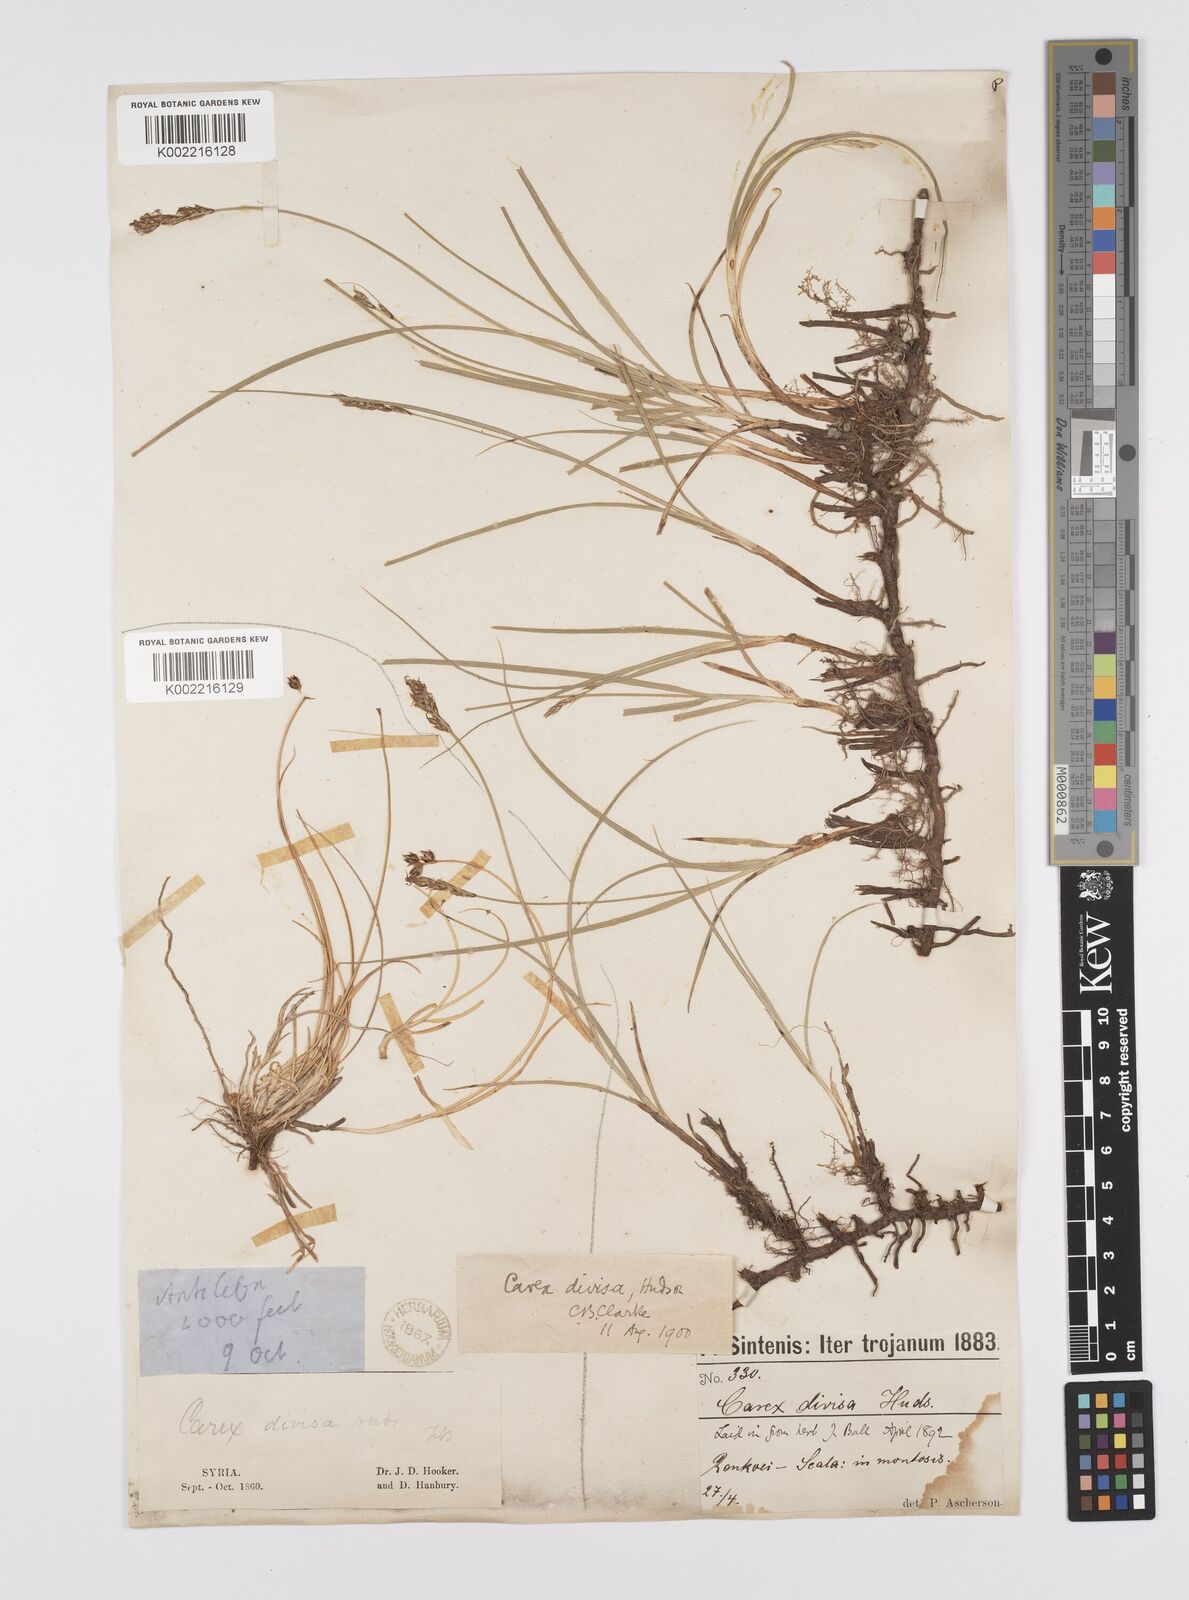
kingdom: Plantae
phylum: Tracheophyta
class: Liliopsida
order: Poales
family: Cyperaceae
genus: Carex
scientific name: Carex divisa
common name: Divided sedge
